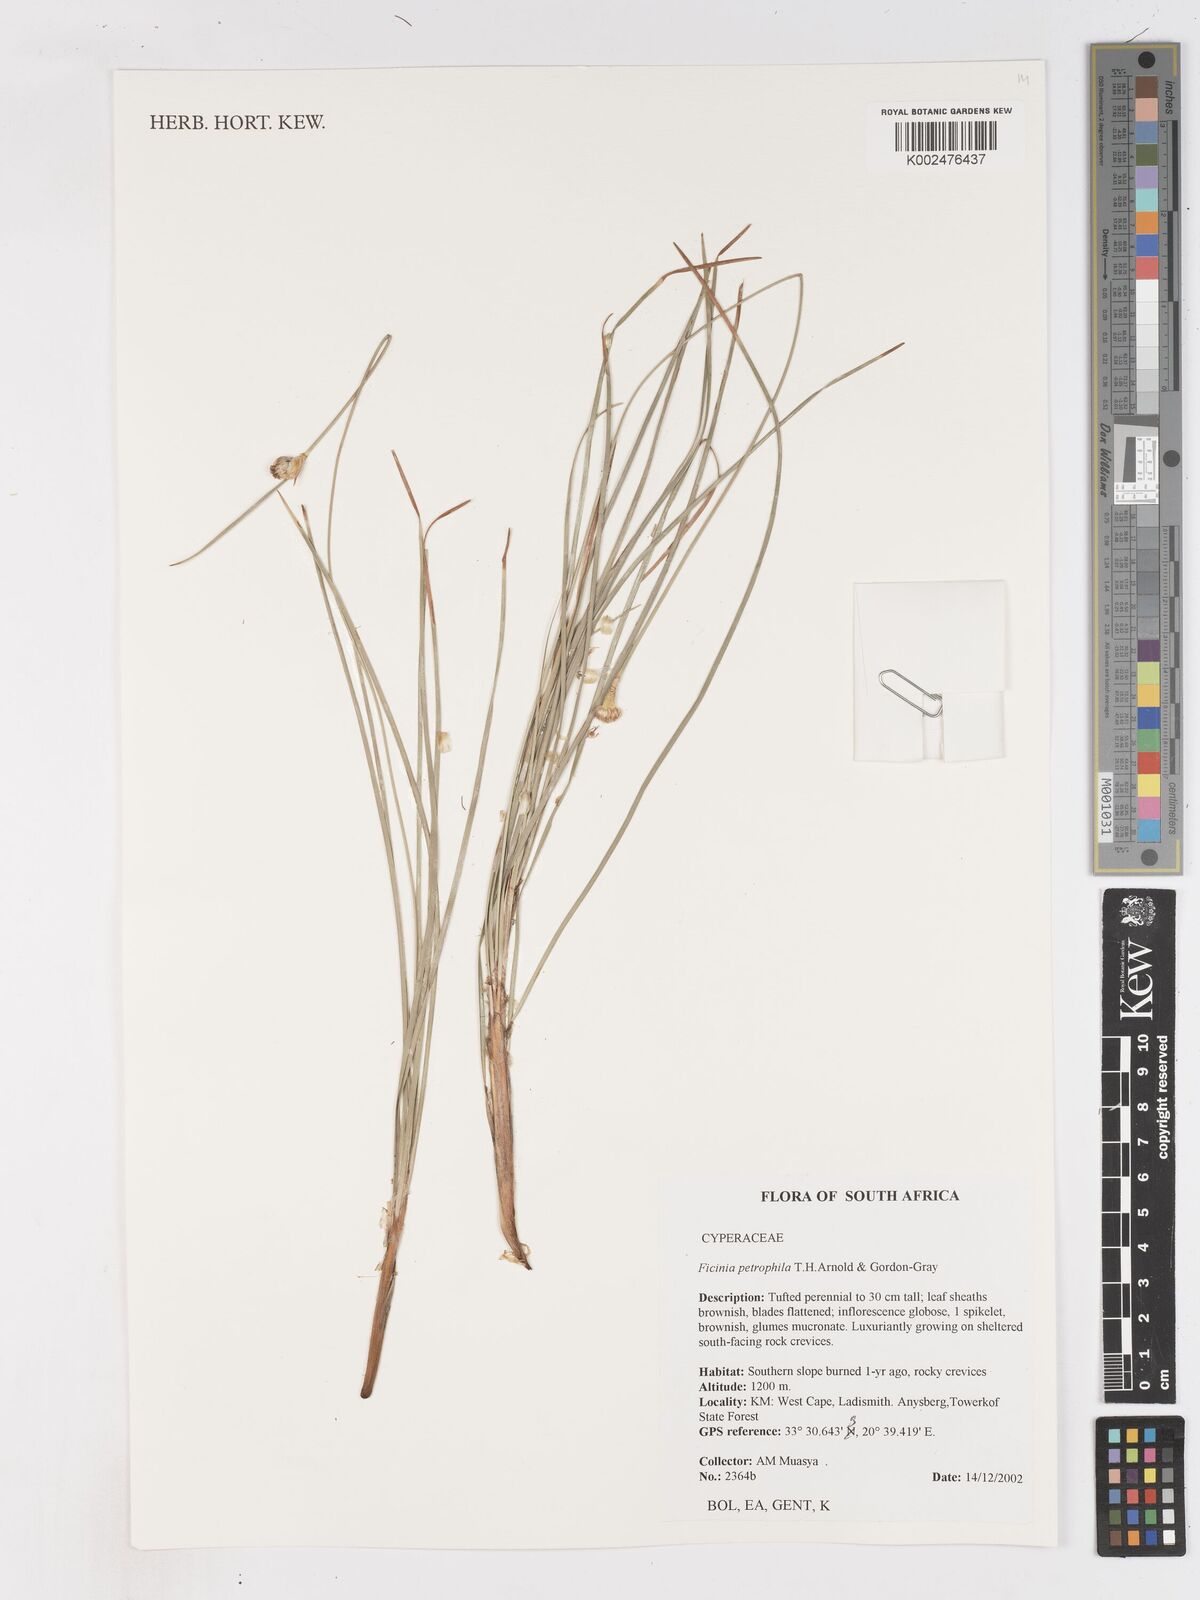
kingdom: Plantae
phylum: Tracheophyta
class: Liliopsida
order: Poales
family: Cyperaceae
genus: Ficinia
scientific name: Ficinia petrophylla
